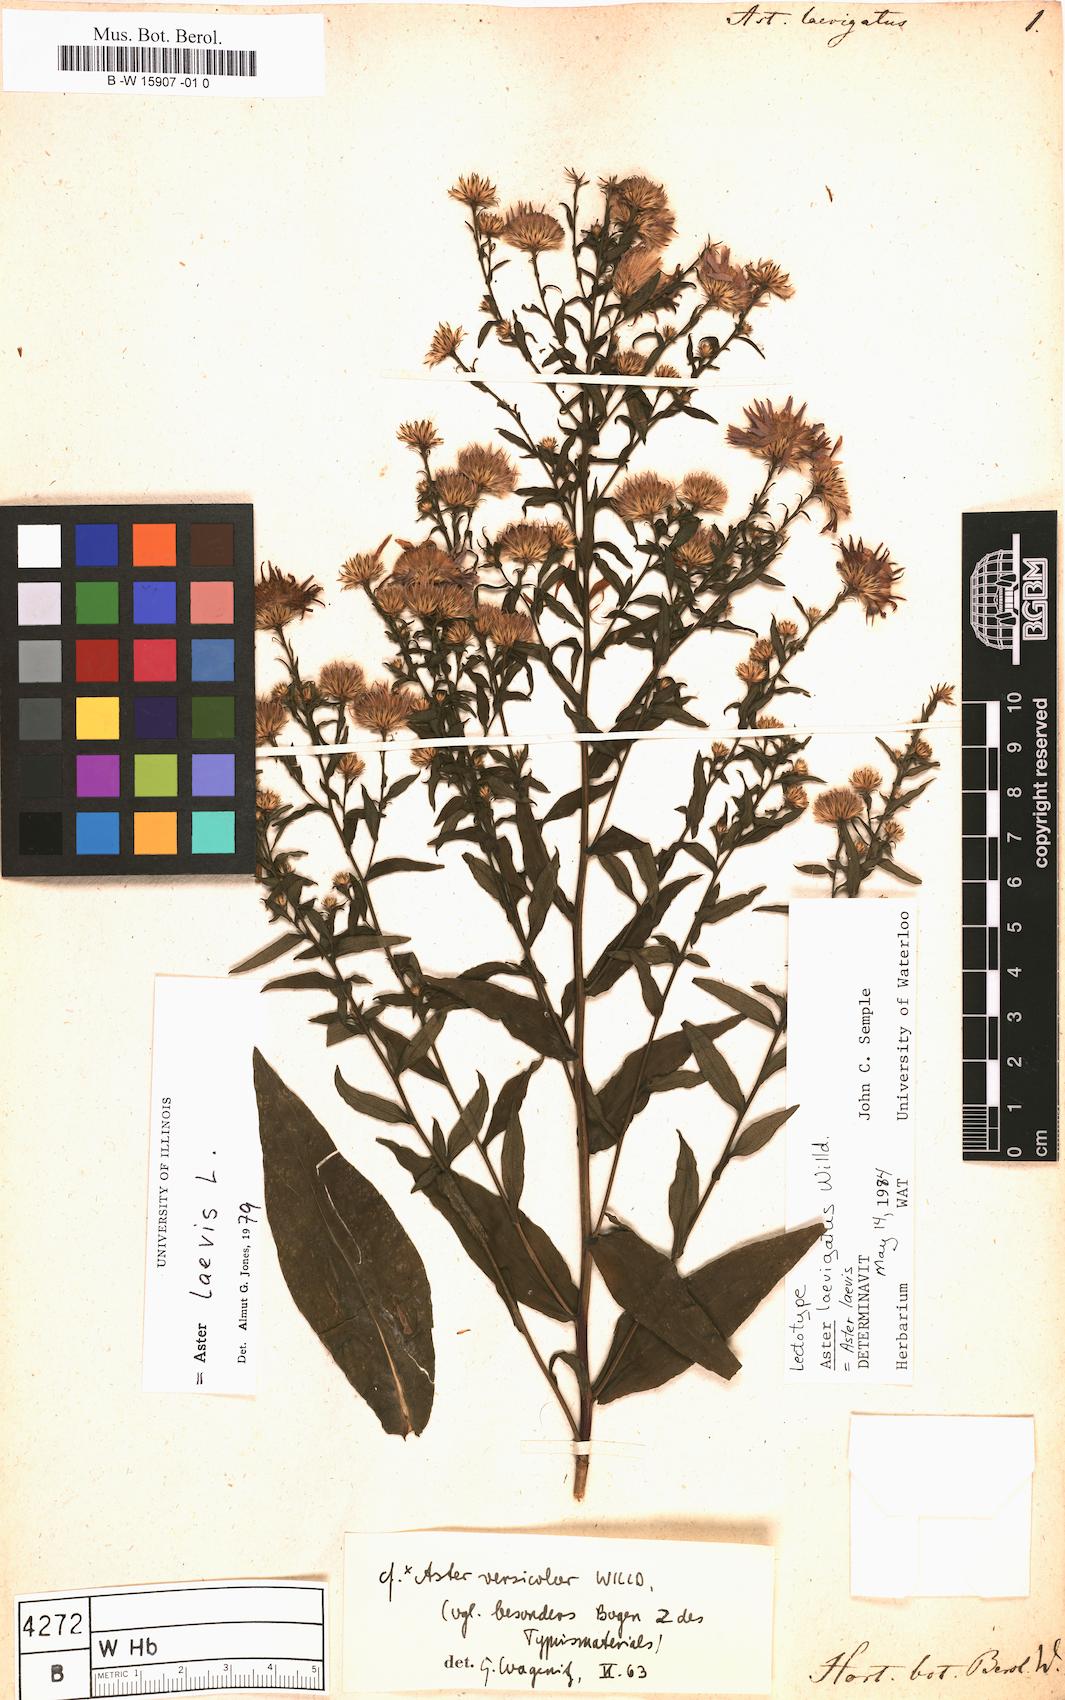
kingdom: Plantae
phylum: Tracheophyta
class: Magnoliopsida
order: Asterales
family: Asteraceae
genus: Afroaster
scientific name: Afroaster laevigatus
